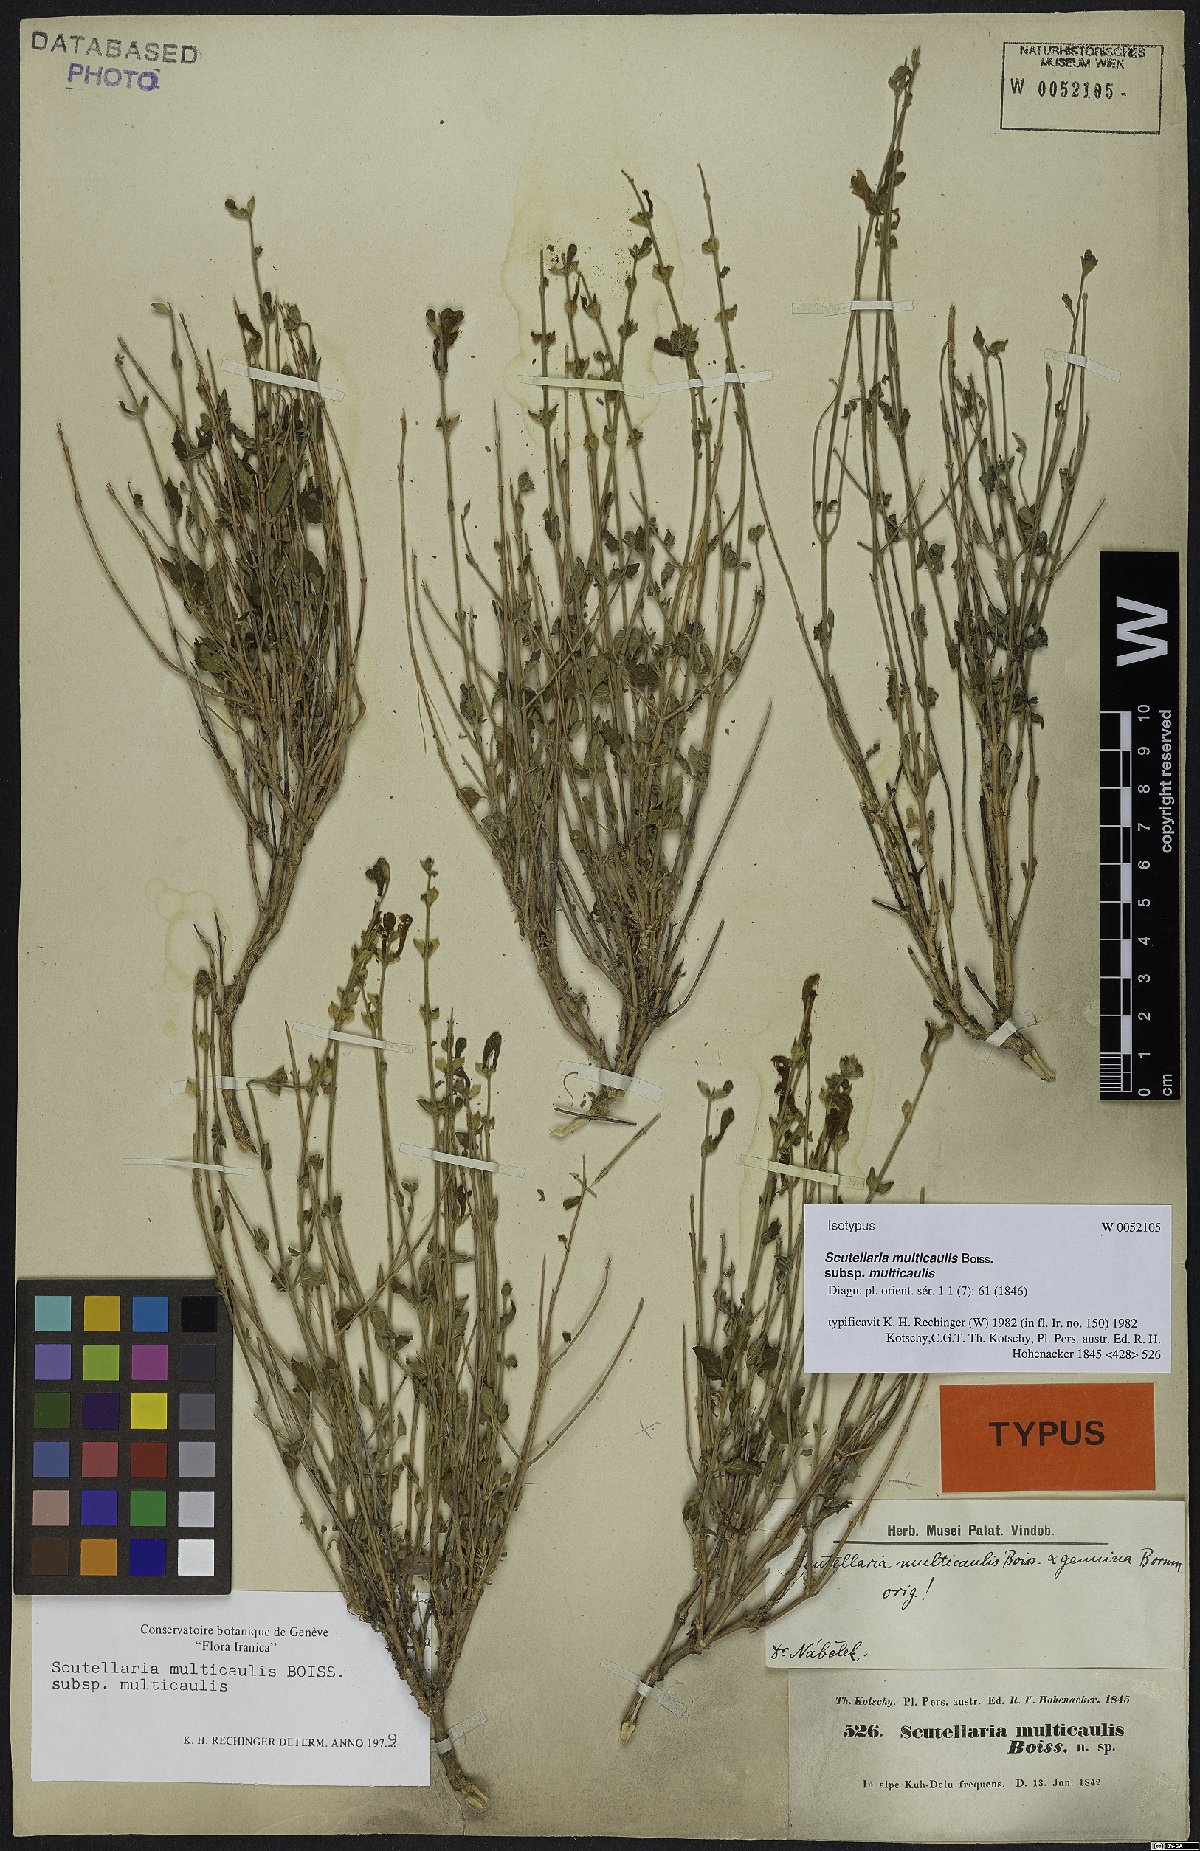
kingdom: Plantae
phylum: Tracheophyta
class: Magnoliopsida
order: Lamiales
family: Lamiaceae
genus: Scutellaria
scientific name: Scutellaria multicaulis
